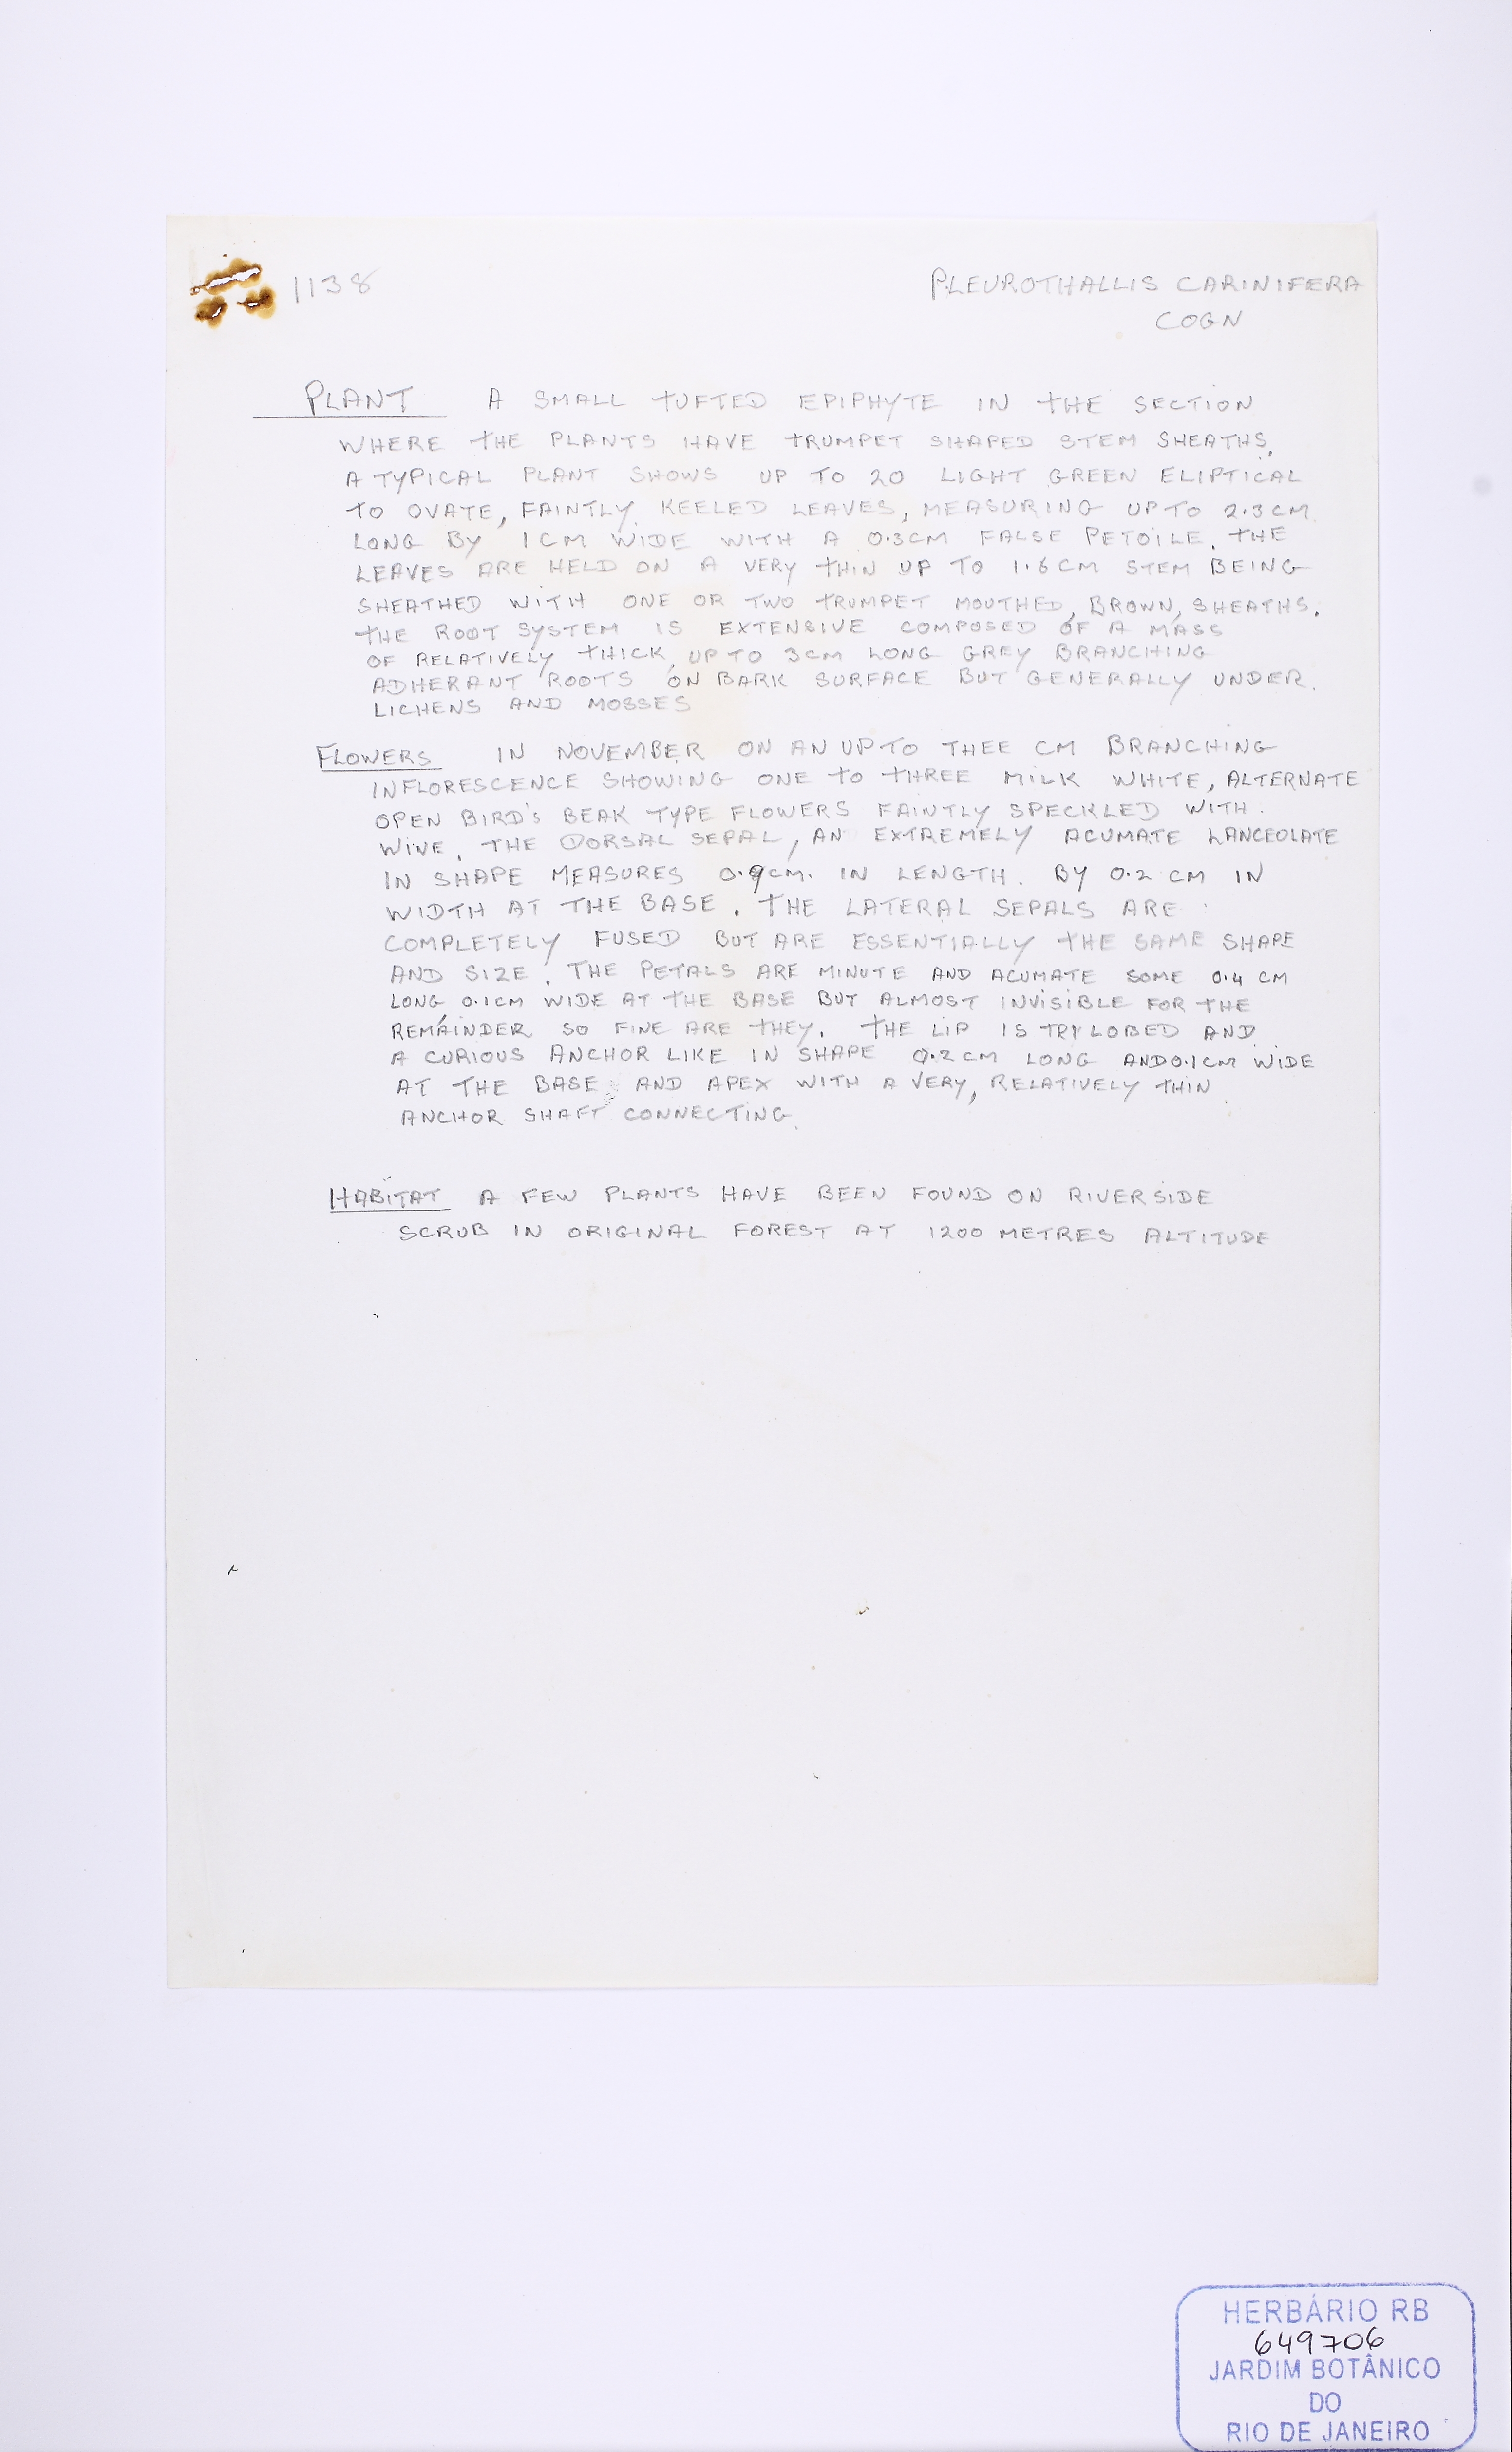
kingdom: Plantae
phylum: Tracheophyta
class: Liliopsida
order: Asparagales
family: Orchidaceae
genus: Pabstiella
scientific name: Pabstiella carinifera
